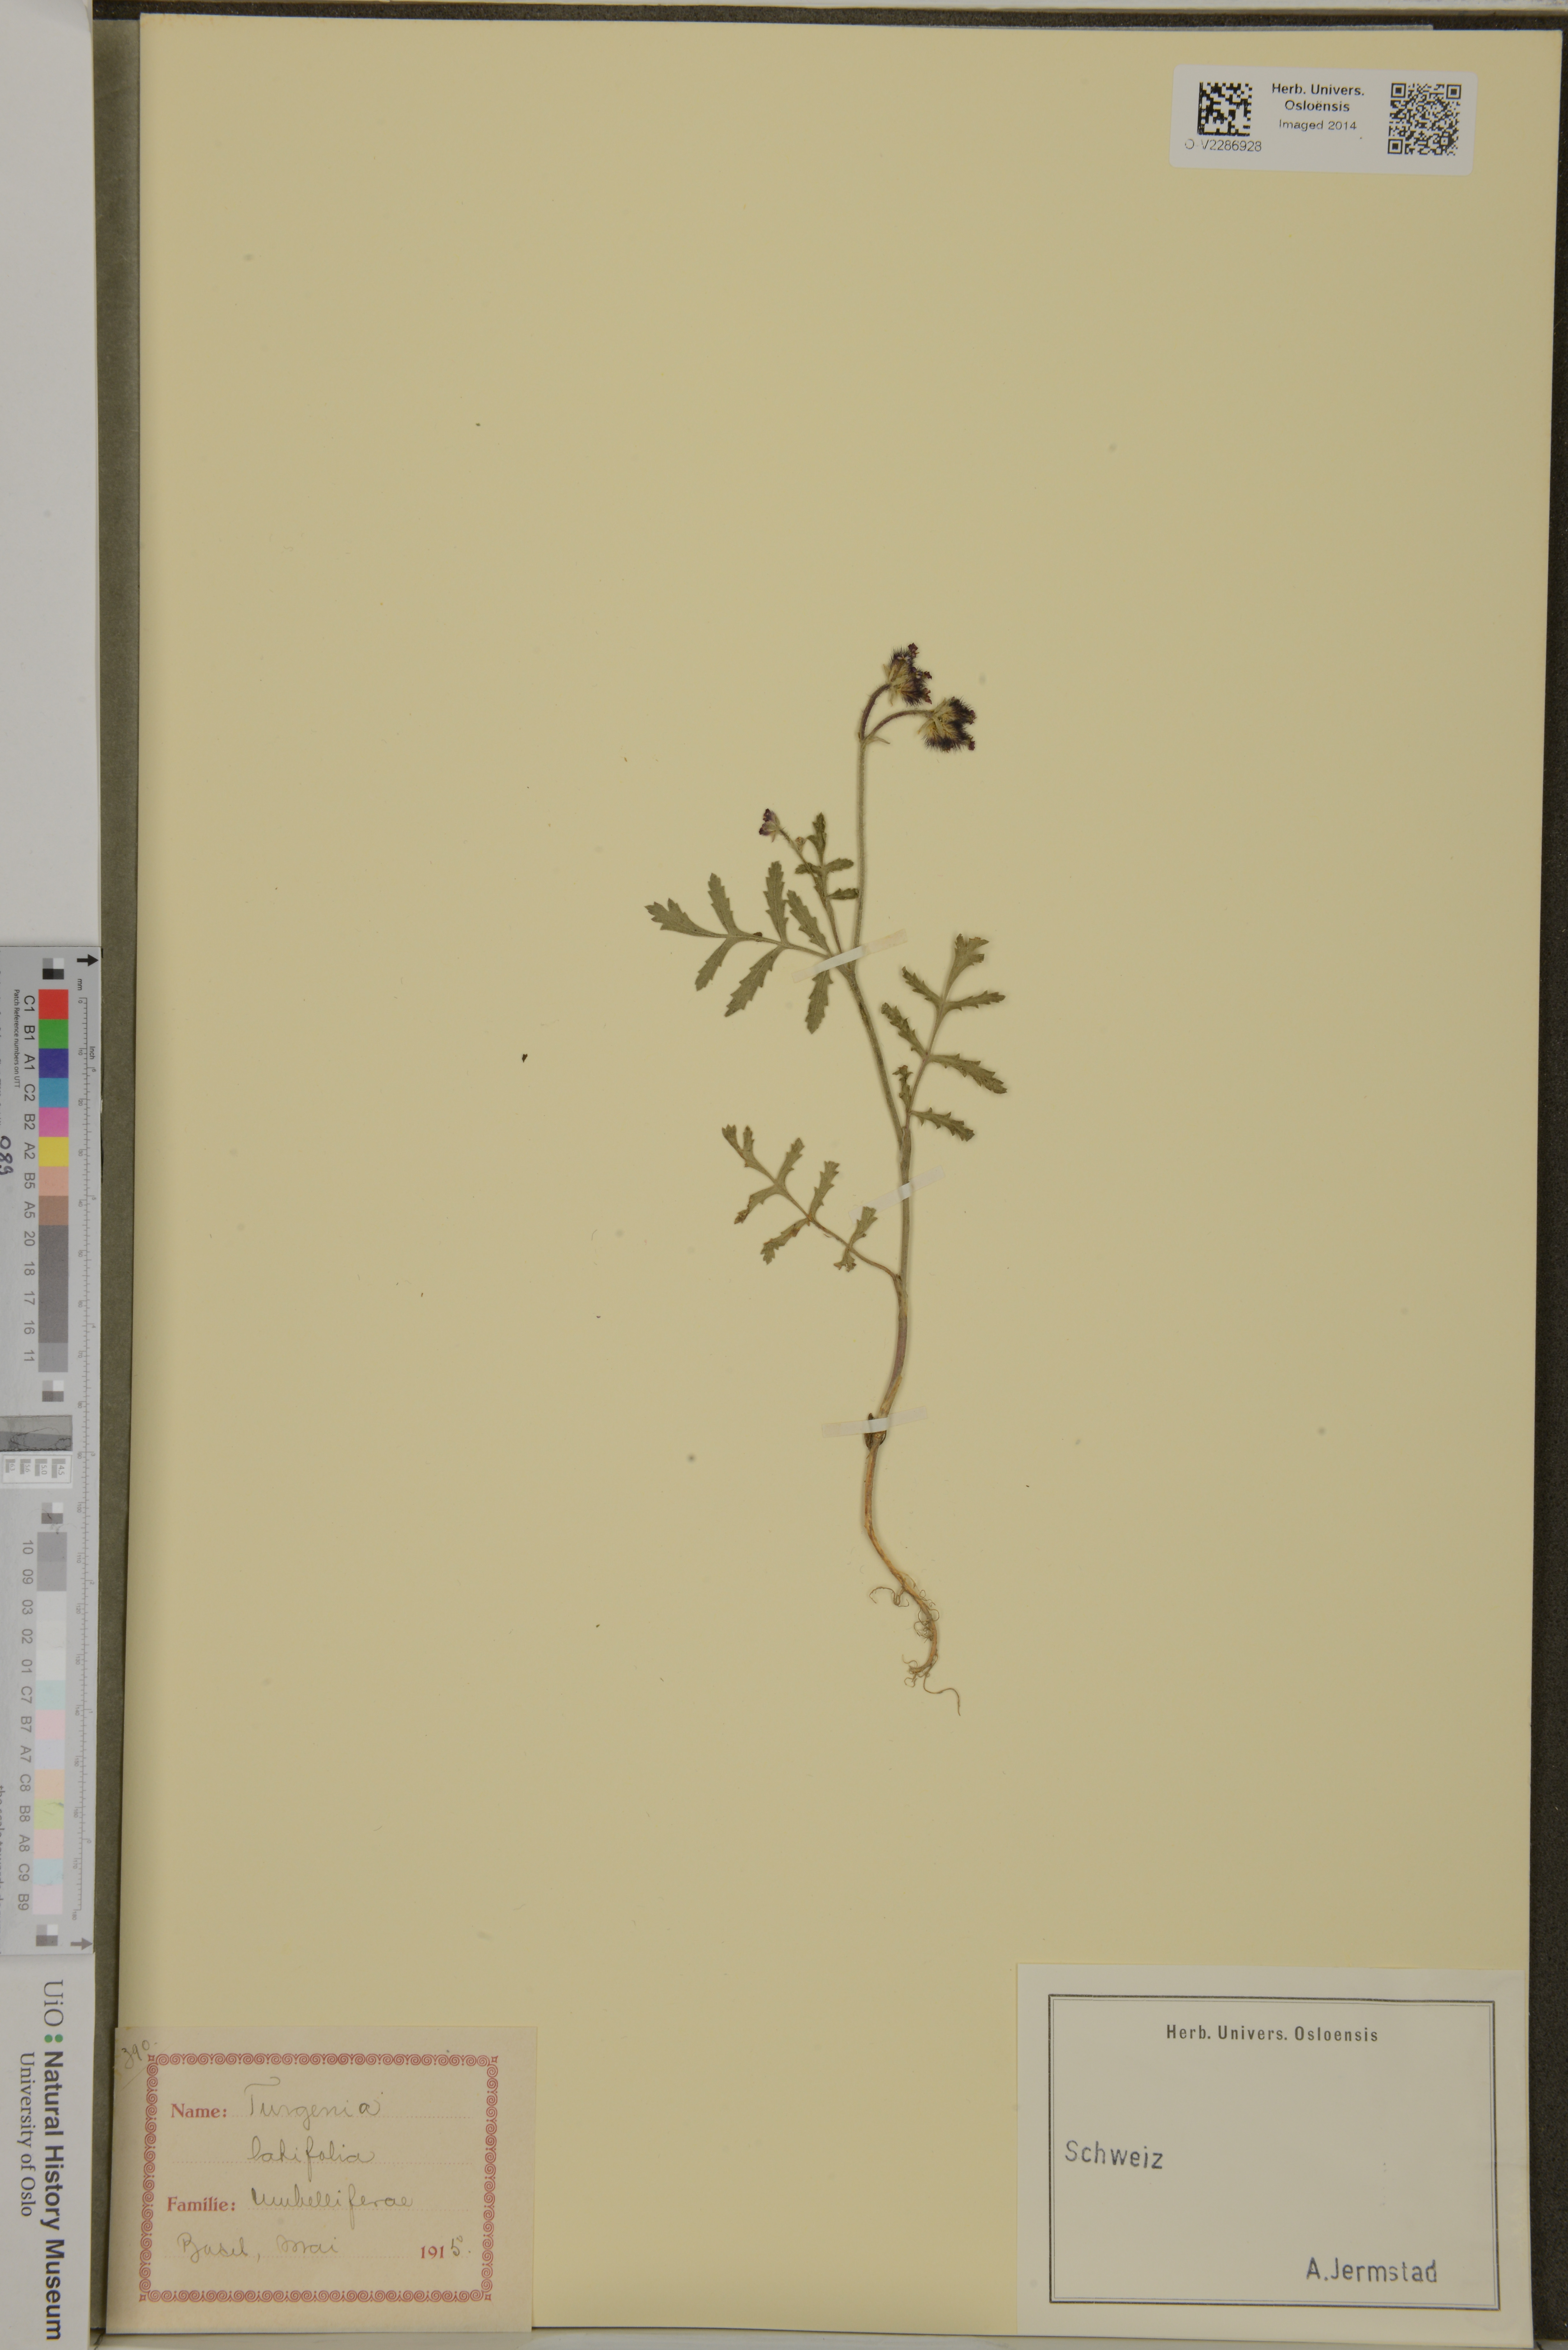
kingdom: Plantae
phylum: Tracheophyta
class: Magnoliopsida
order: Apiales
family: Apiaceae
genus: Turgenia
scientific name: Turgenia latifolia
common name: Greater bur-parsley
